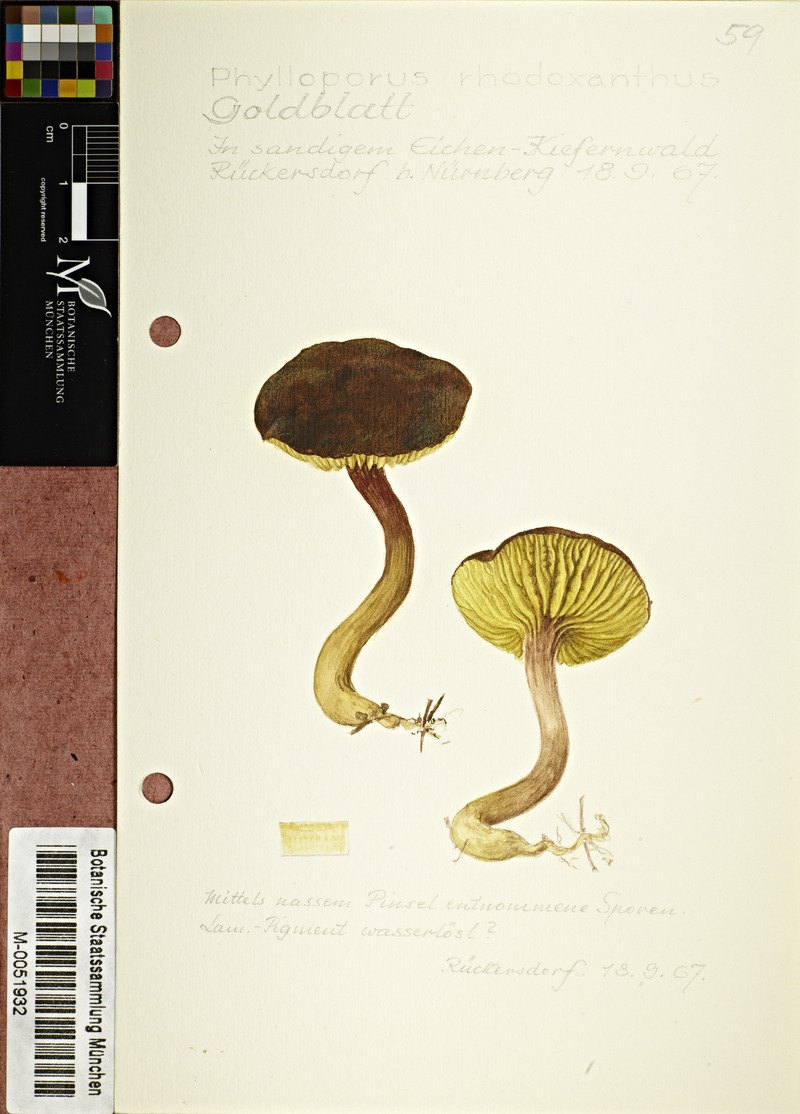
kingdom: Fungi
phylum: Basidiomycota
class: Agaricomycetes
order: Boletales
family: Boletaceae
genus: Phylloporus
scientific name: Phylloporus rhodoxanthus
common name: Golden gilled bolete
